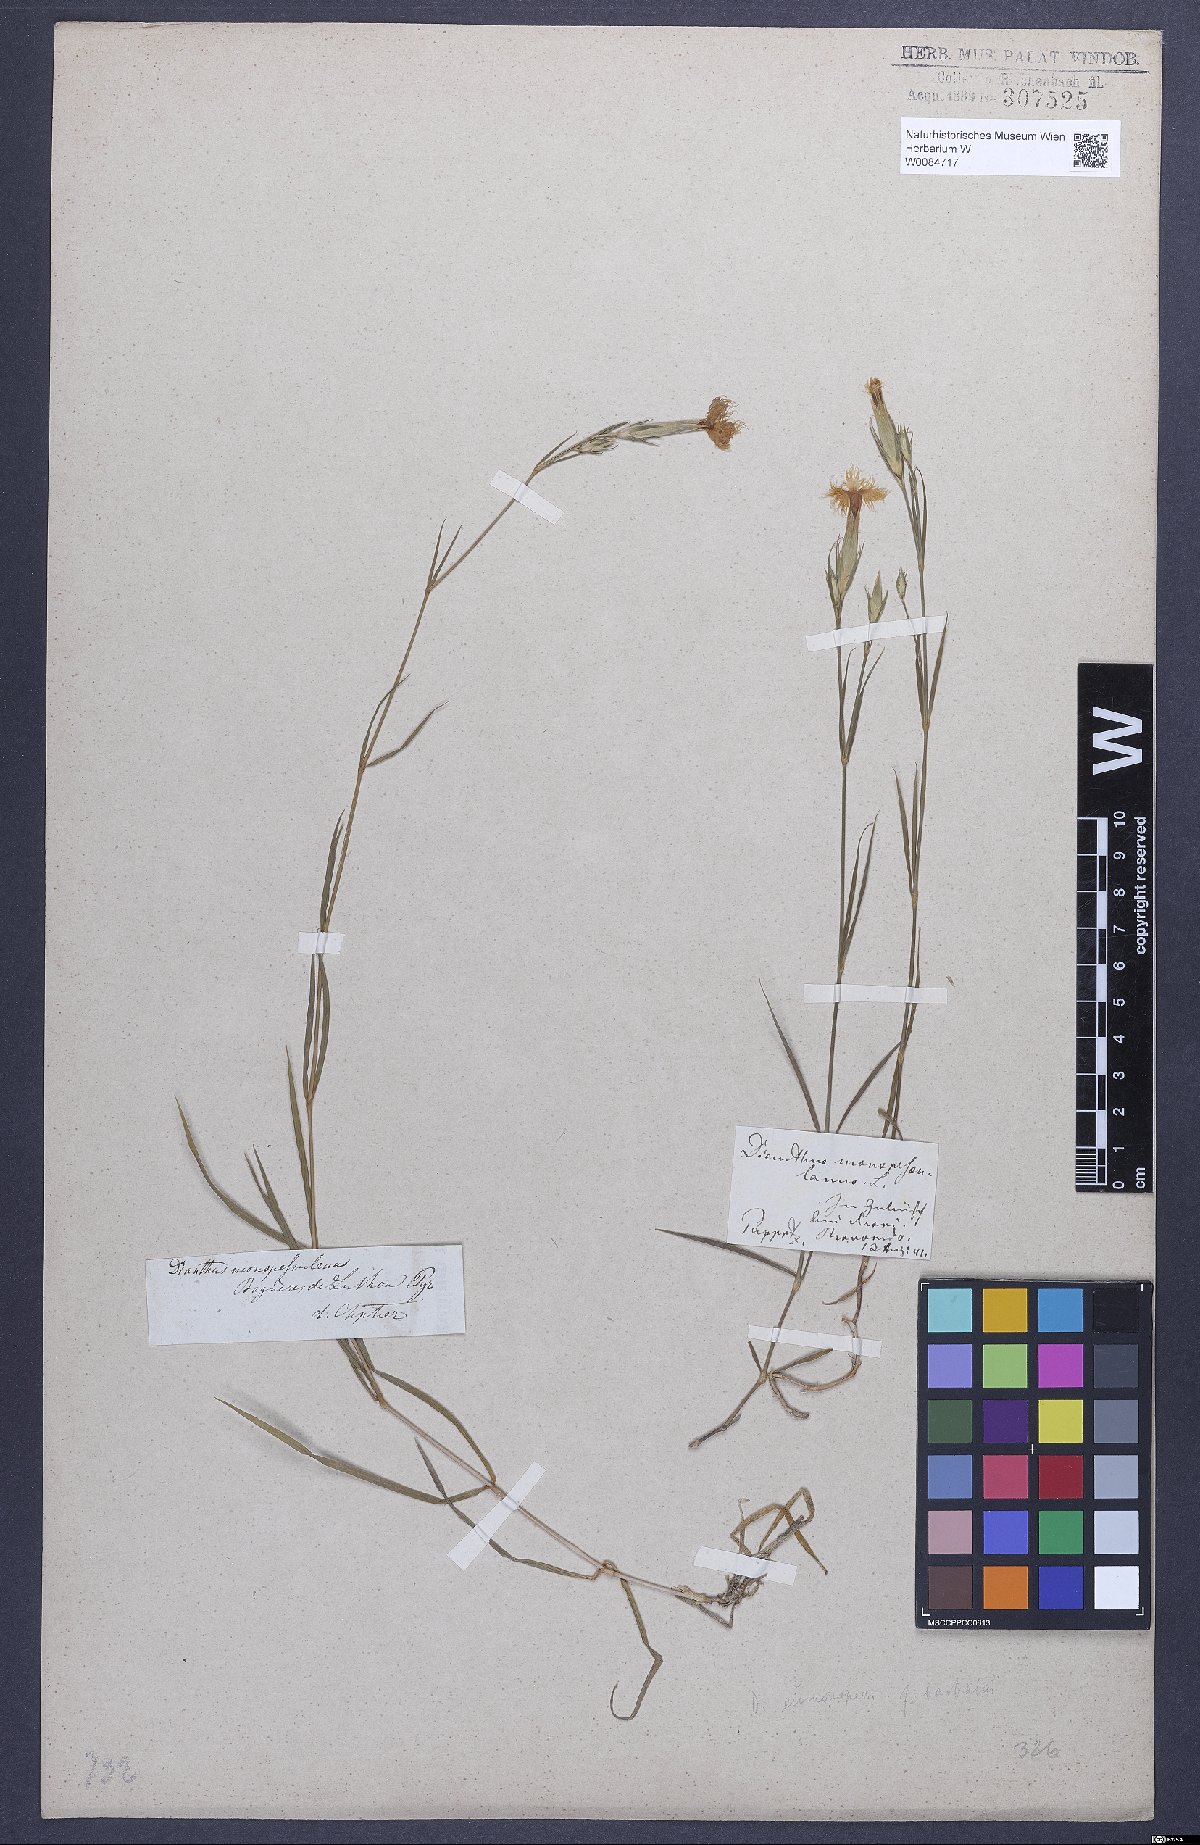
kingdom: Plantae
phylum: Tracheophyta
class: Magnoliopsida
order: Caryophyllales
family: Caryophyllaceae
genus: Dianthus
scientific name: Dianthus hyssopifolius
